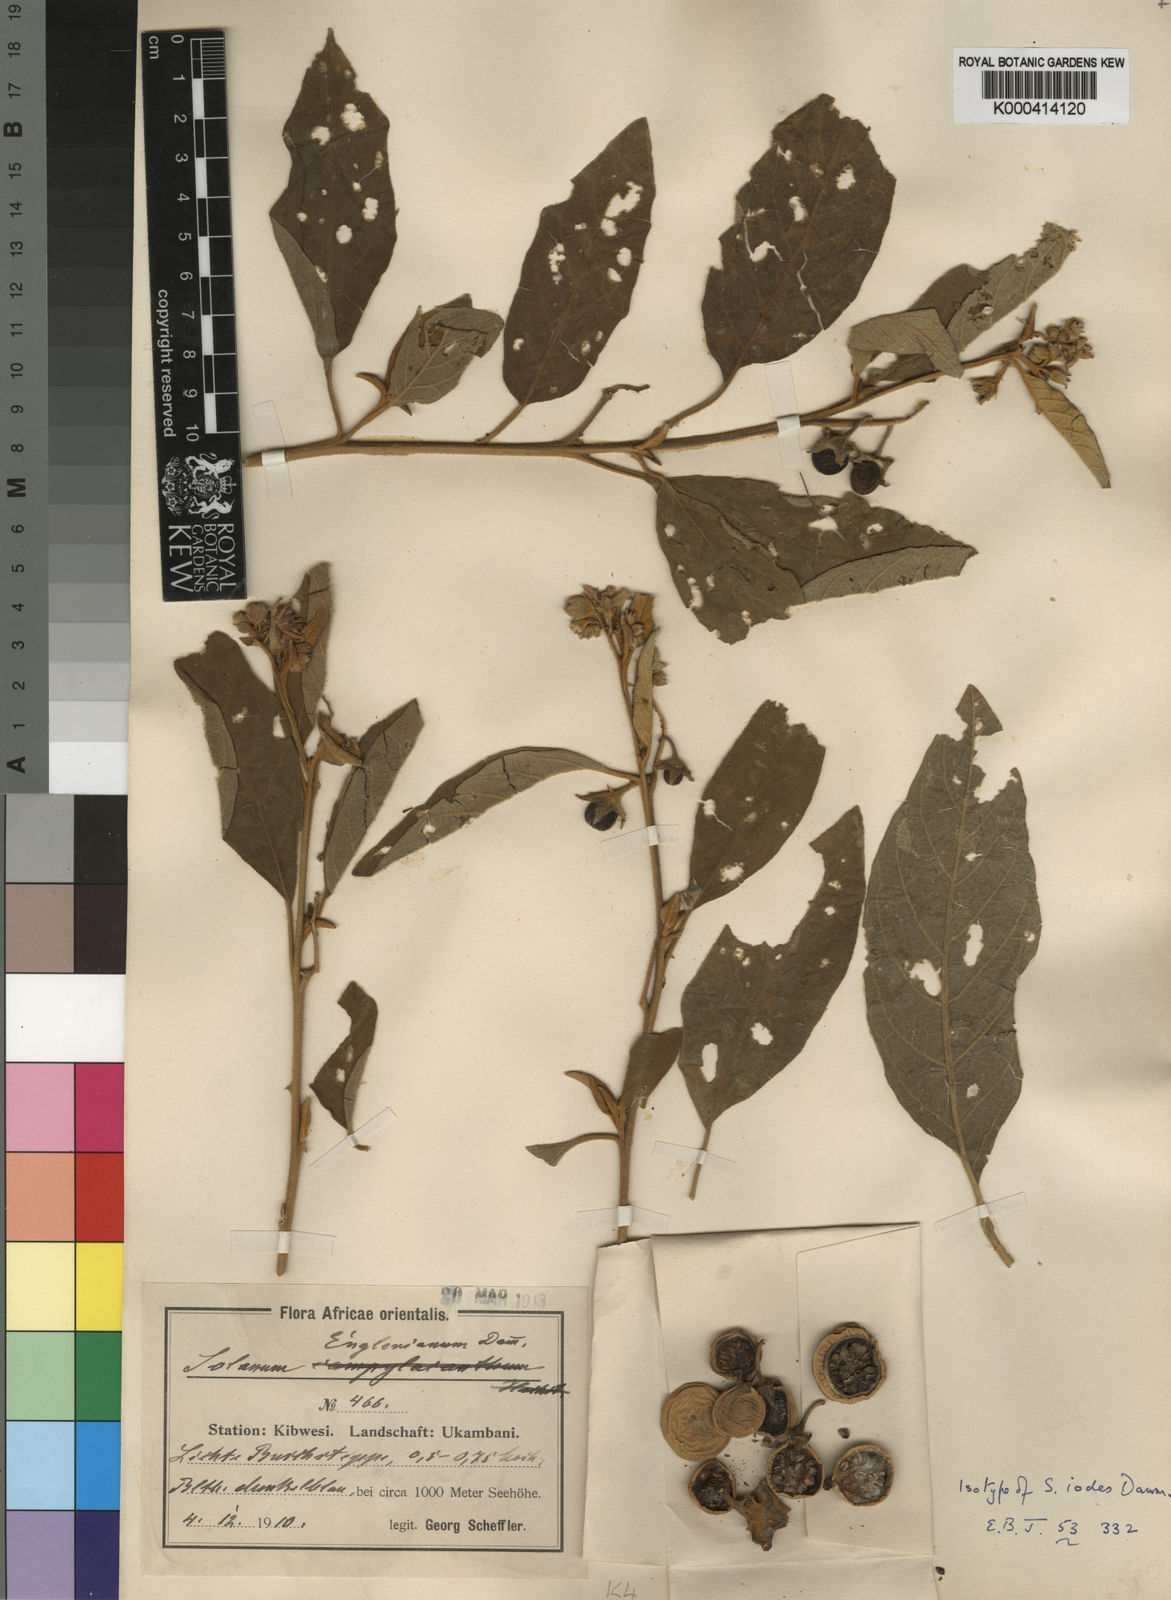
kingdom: Plantae
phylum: Tracheophyta
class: Magnoliopsida
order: Solanales
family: Solanaceae
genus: Solanum
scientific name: Solanum incanum
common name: Bitter apple
